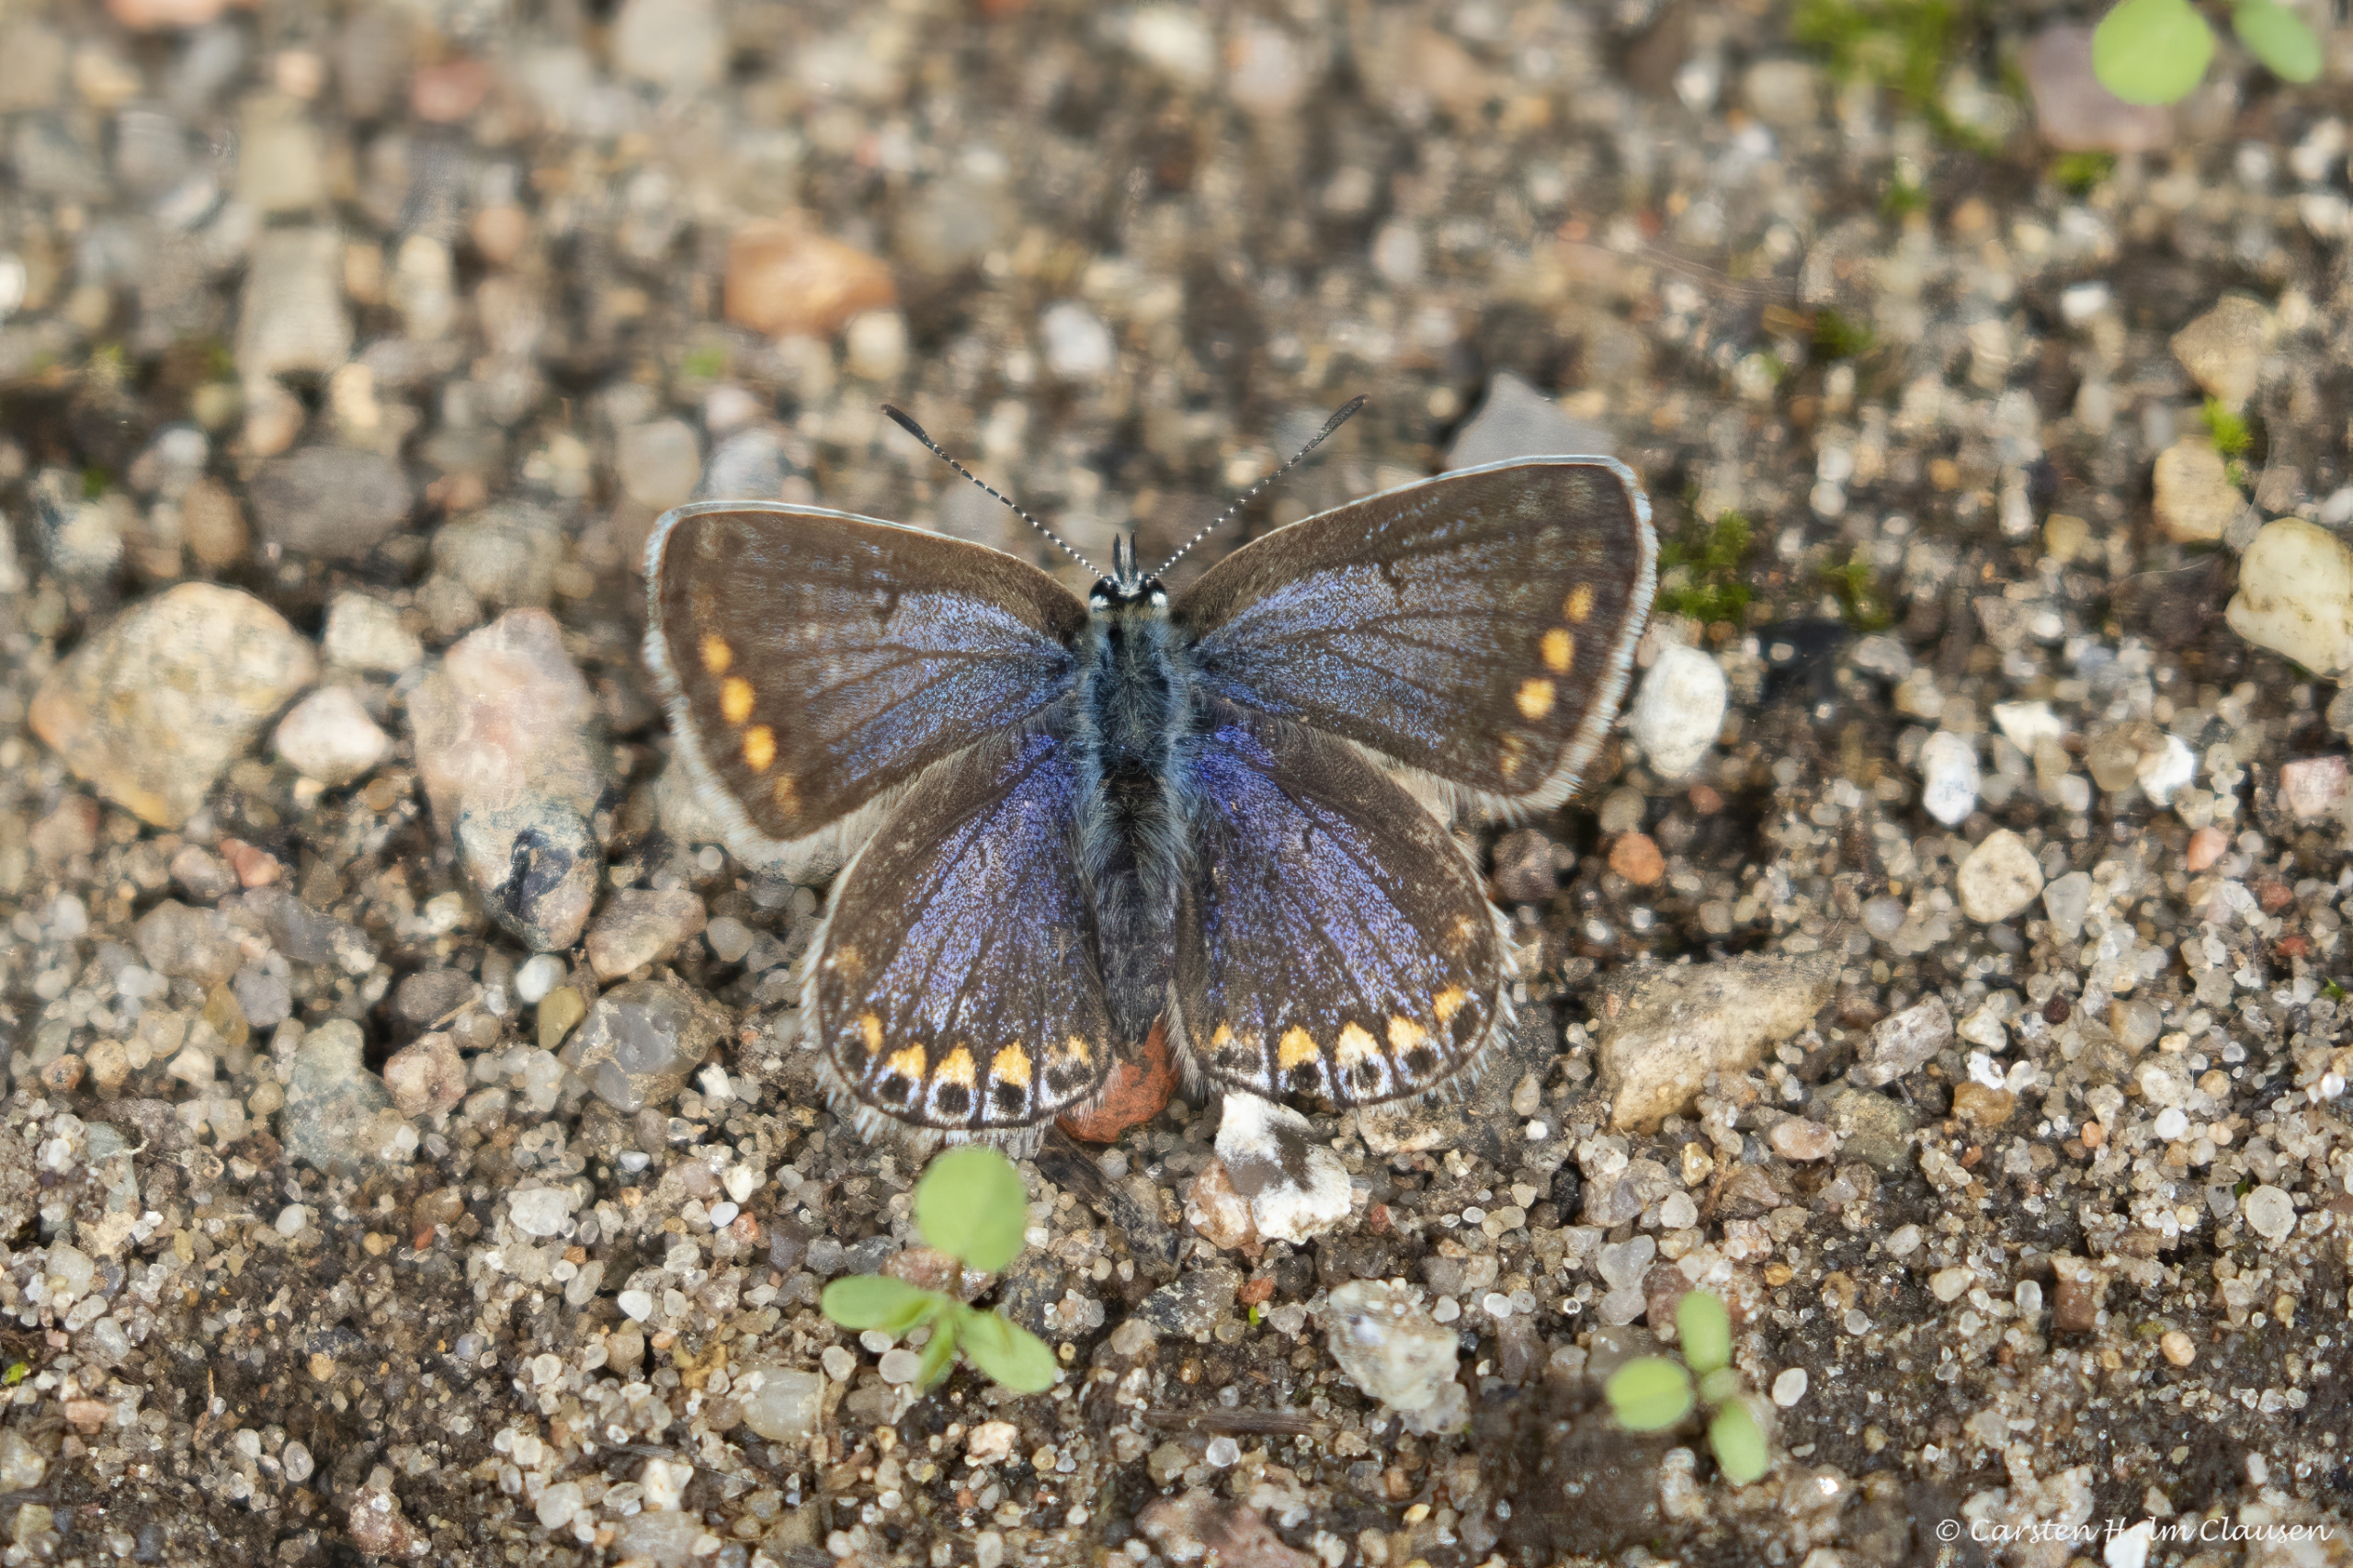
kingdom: Animalia
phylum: Arthropoda
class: Insecta
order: Lepidoptera
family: Lycaenidae
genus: Polyommatus
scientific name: Polyommatus icarus
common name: Almindelig blåfugl
